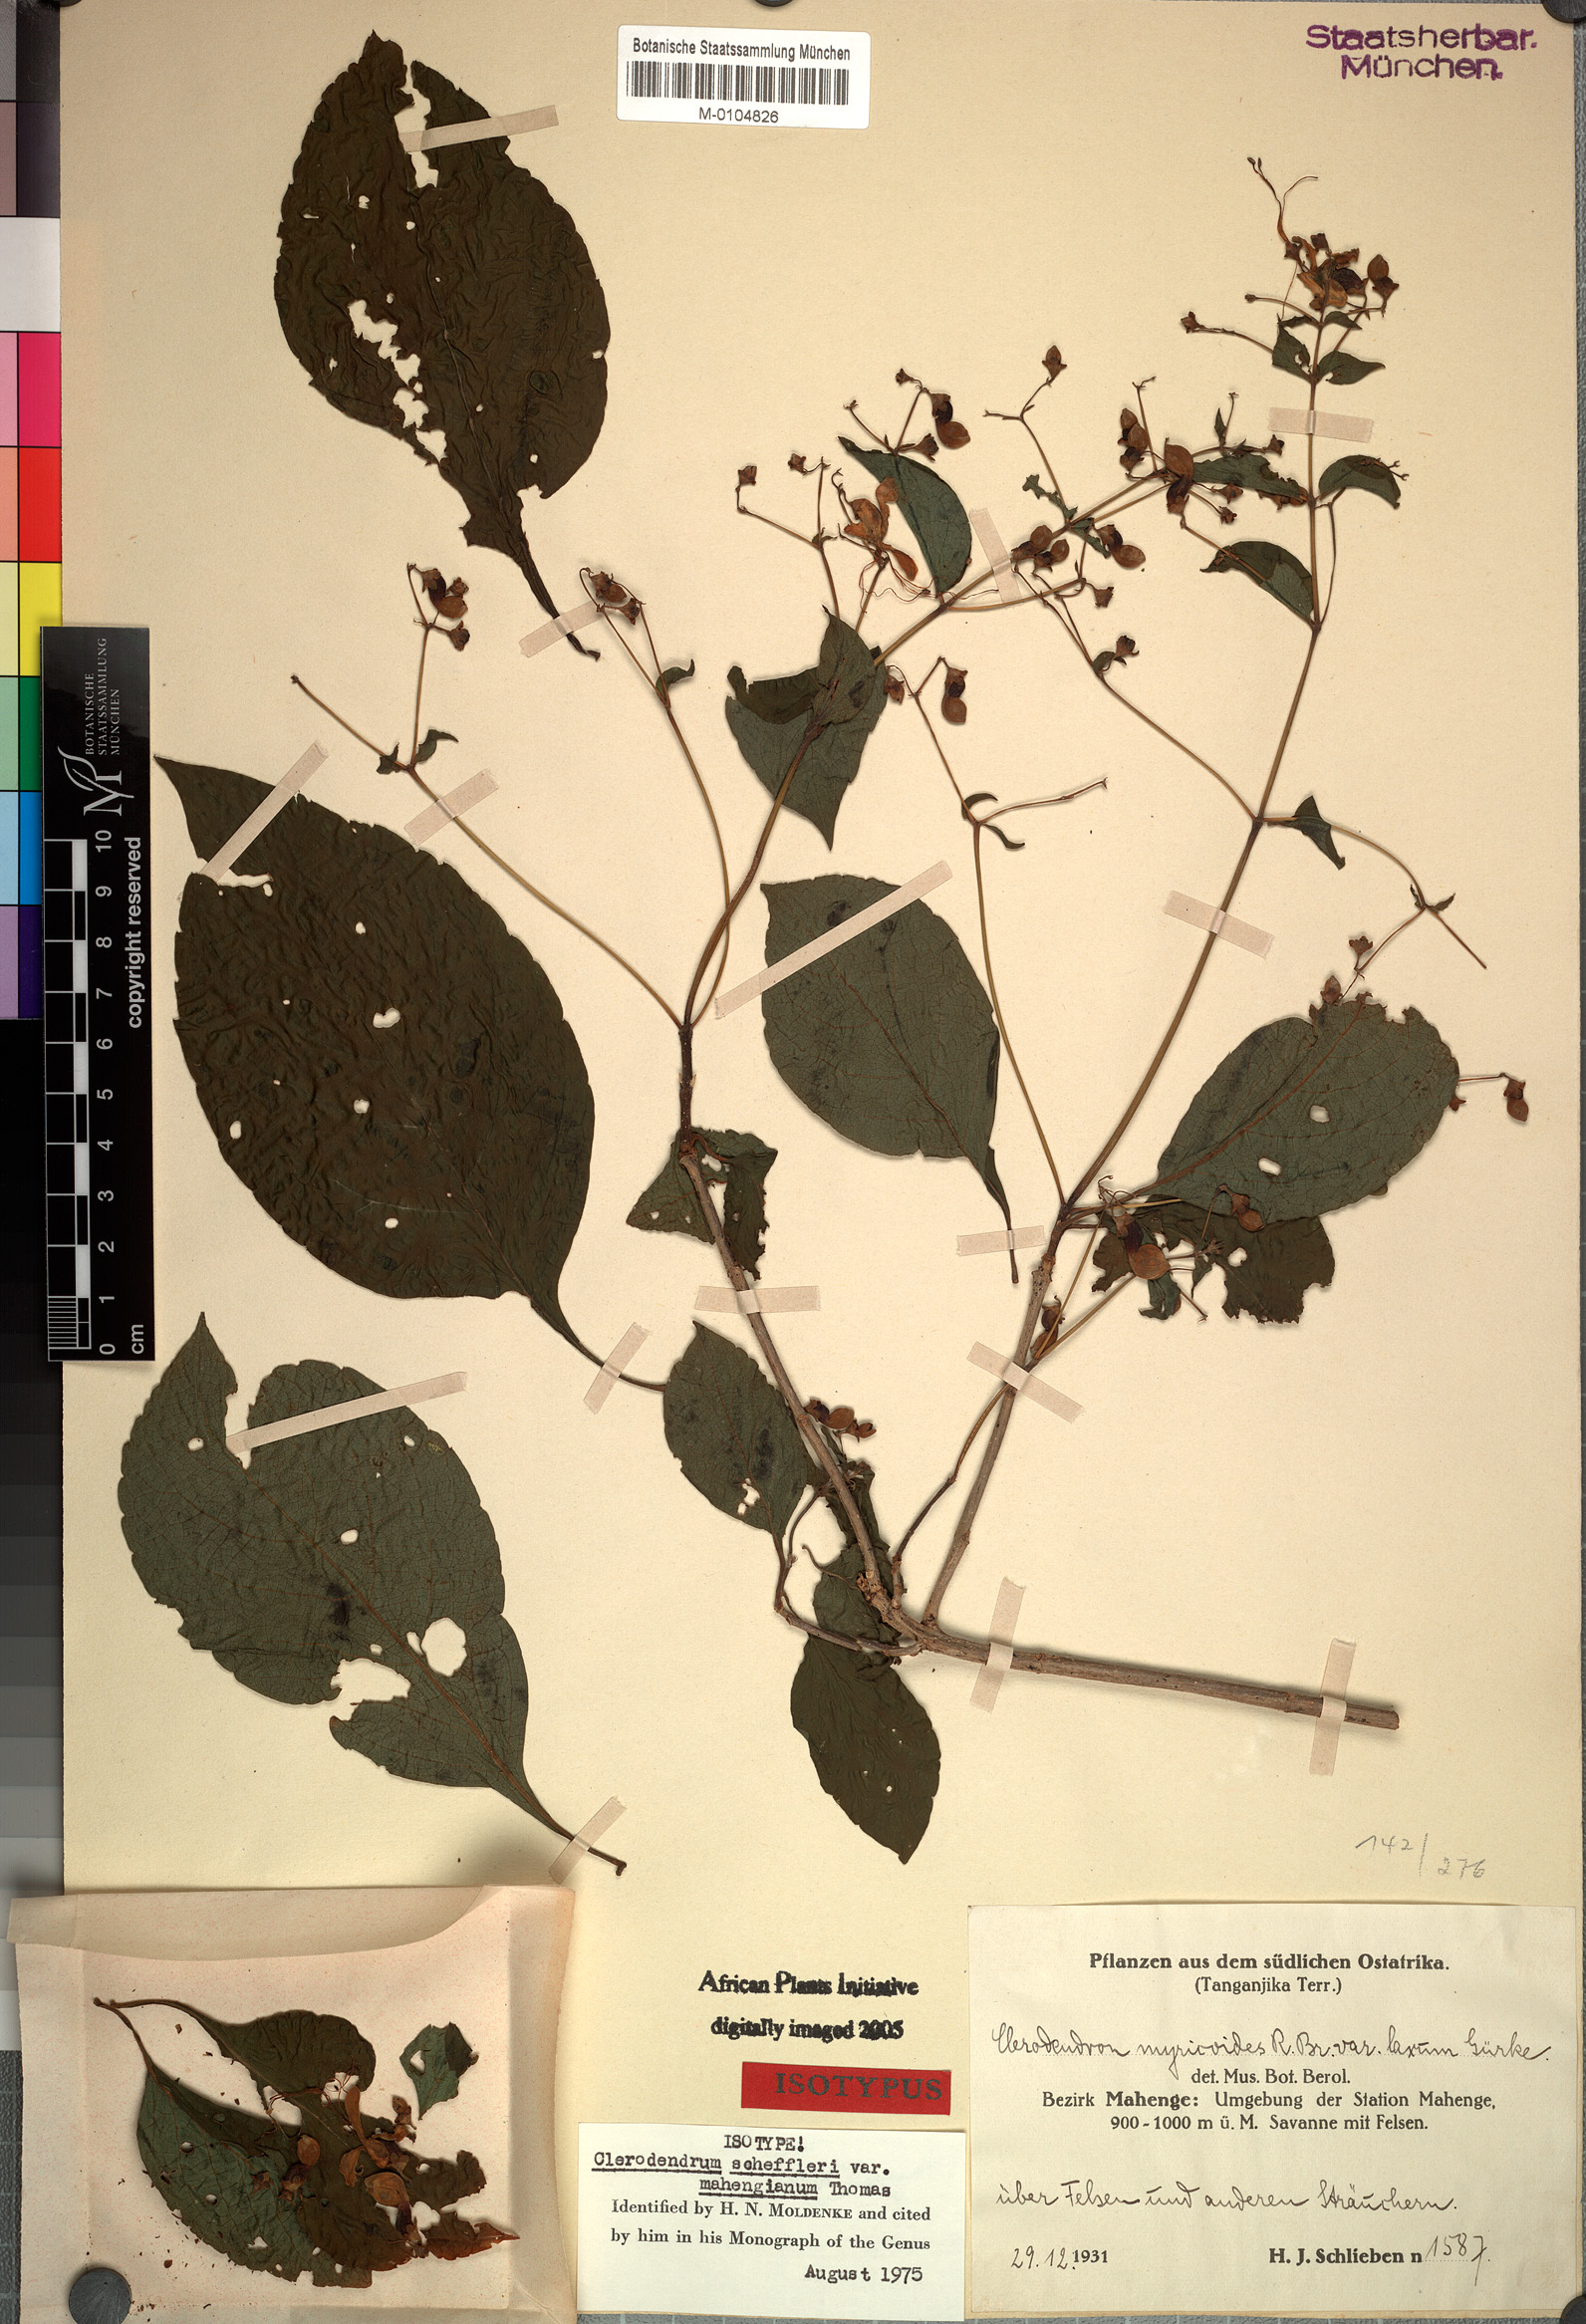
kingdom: Plantae
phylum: Tracheophyta
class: Magnoliopsida
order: Lamiales
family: Lamiaceae
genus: Rotheca
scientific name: Rotheca sansibarensis
